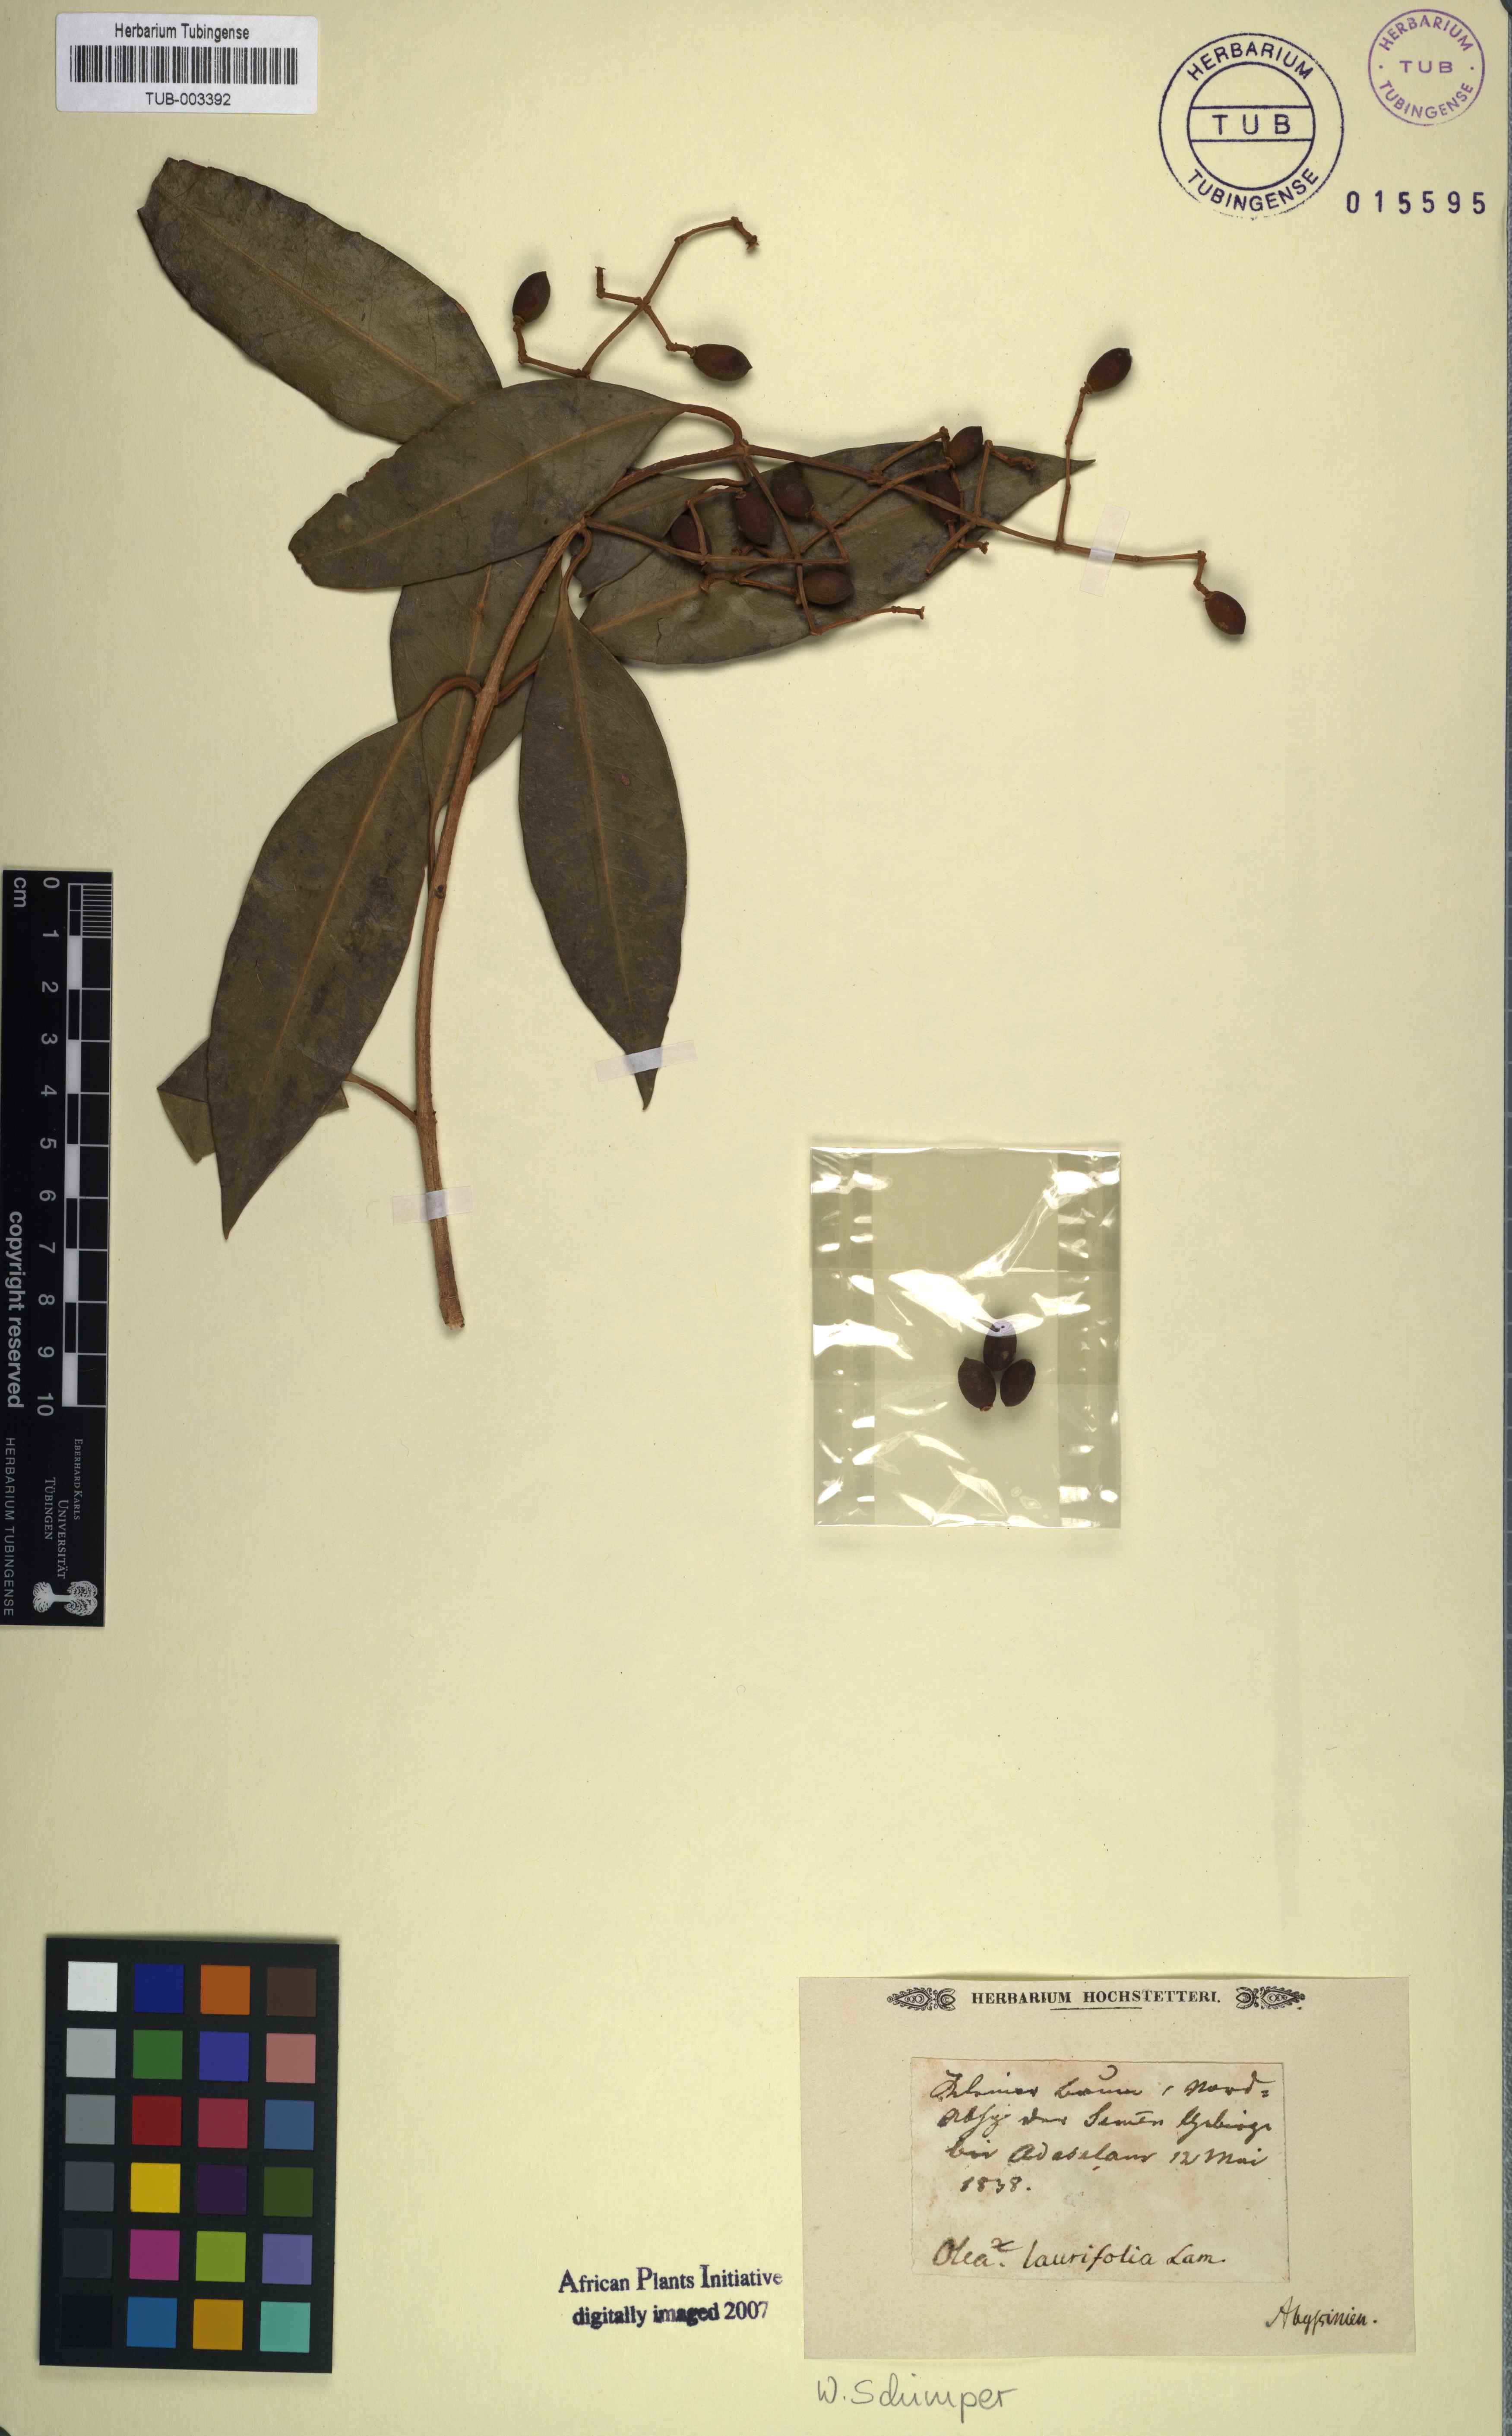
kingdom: Plantae
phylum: Tracheophyta
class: Magnoliopsida
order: Lamiales
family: Oleaceae
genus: Olea
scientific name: Olea capensis
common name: Black ironwood
